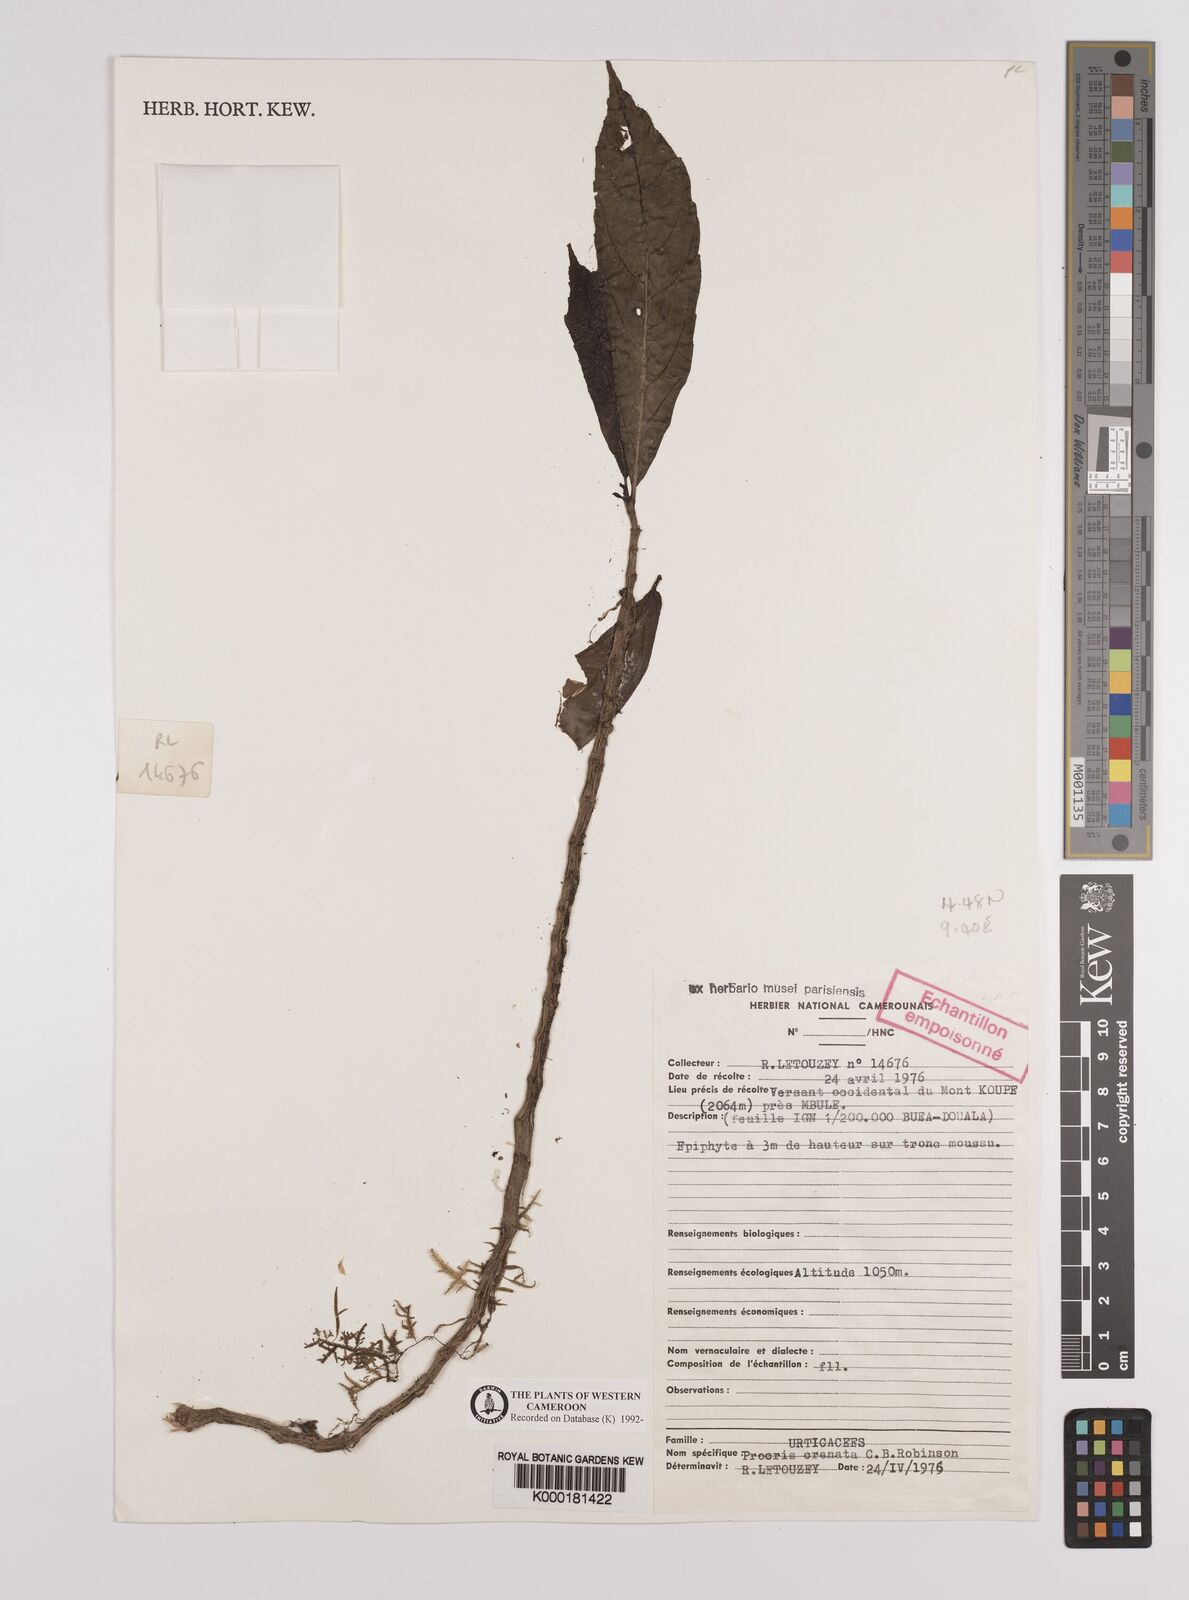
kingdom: Plantae
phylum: Tracheophyta
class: Magnoliopsida
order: Rosales
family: Urticaceae
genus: Procris
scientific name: Procris crenata
